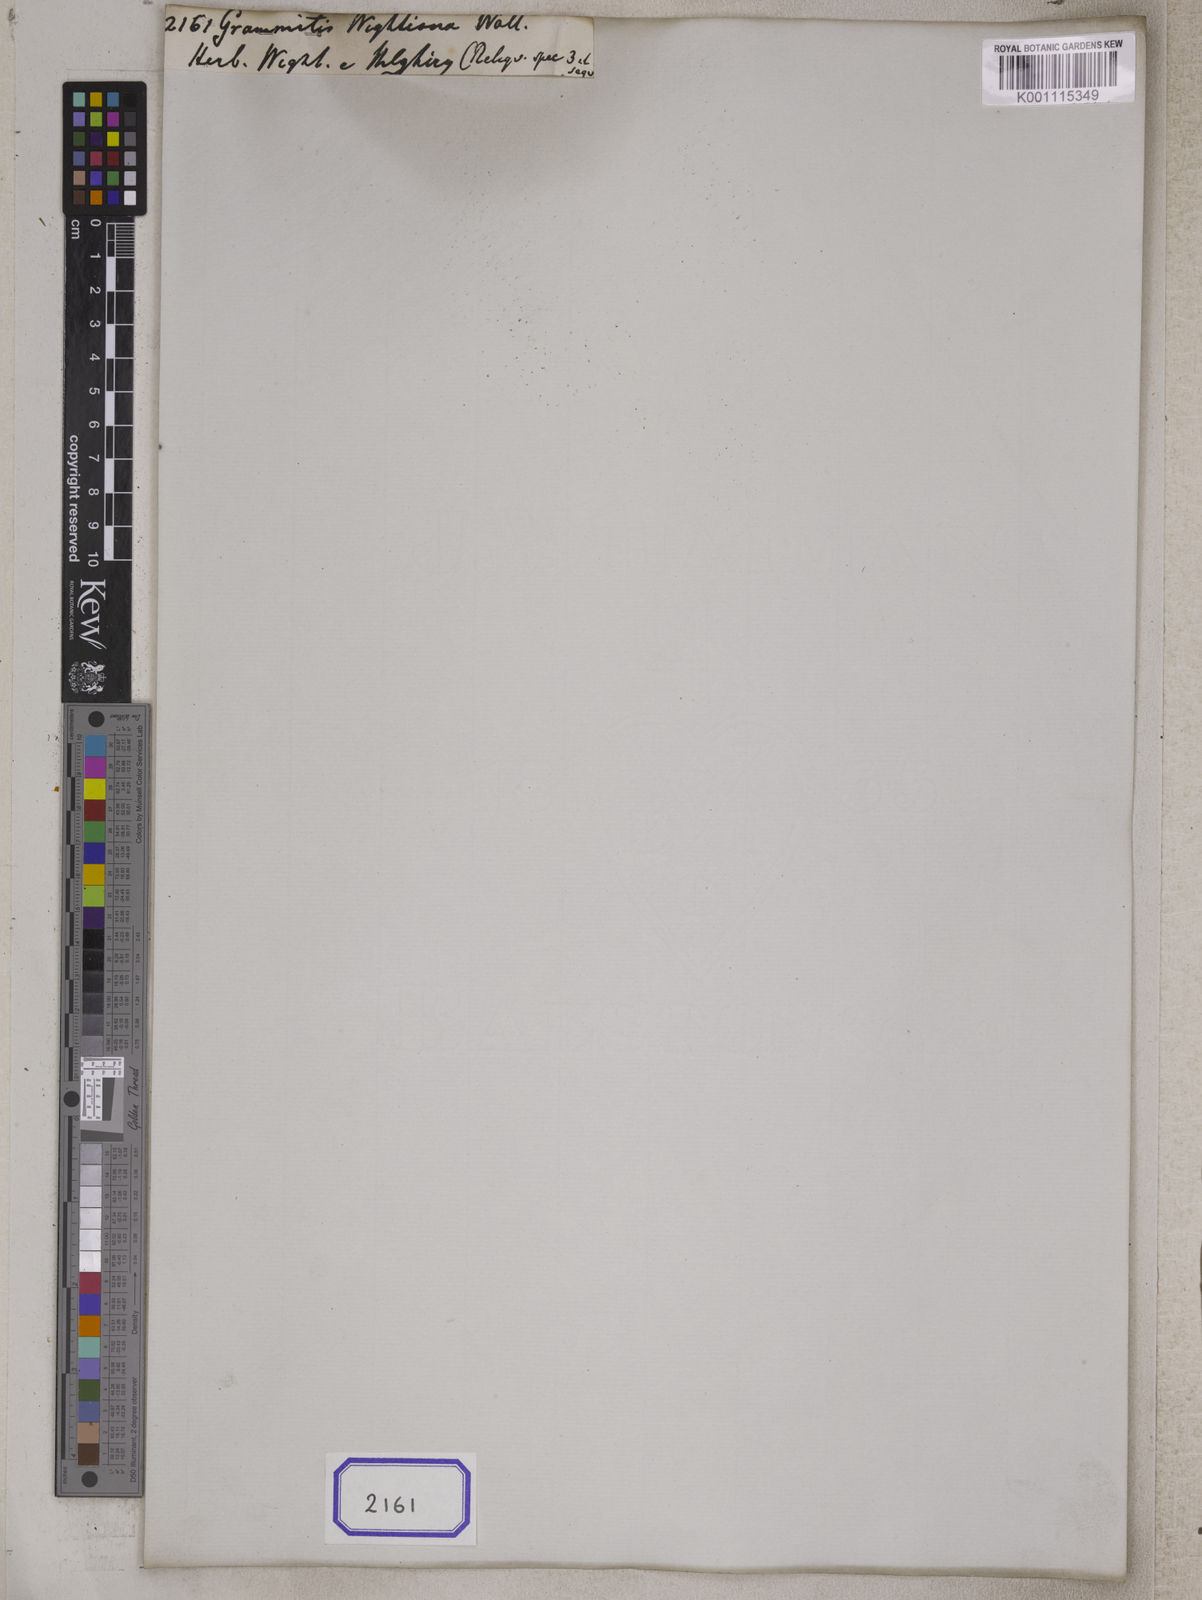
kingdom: Plantae
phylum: Tracheophyta
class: Polypodiopsida
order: Polypodiales
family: Pteridaceae
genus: Paragymnopteris
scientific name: Paragymnopteris vestita
